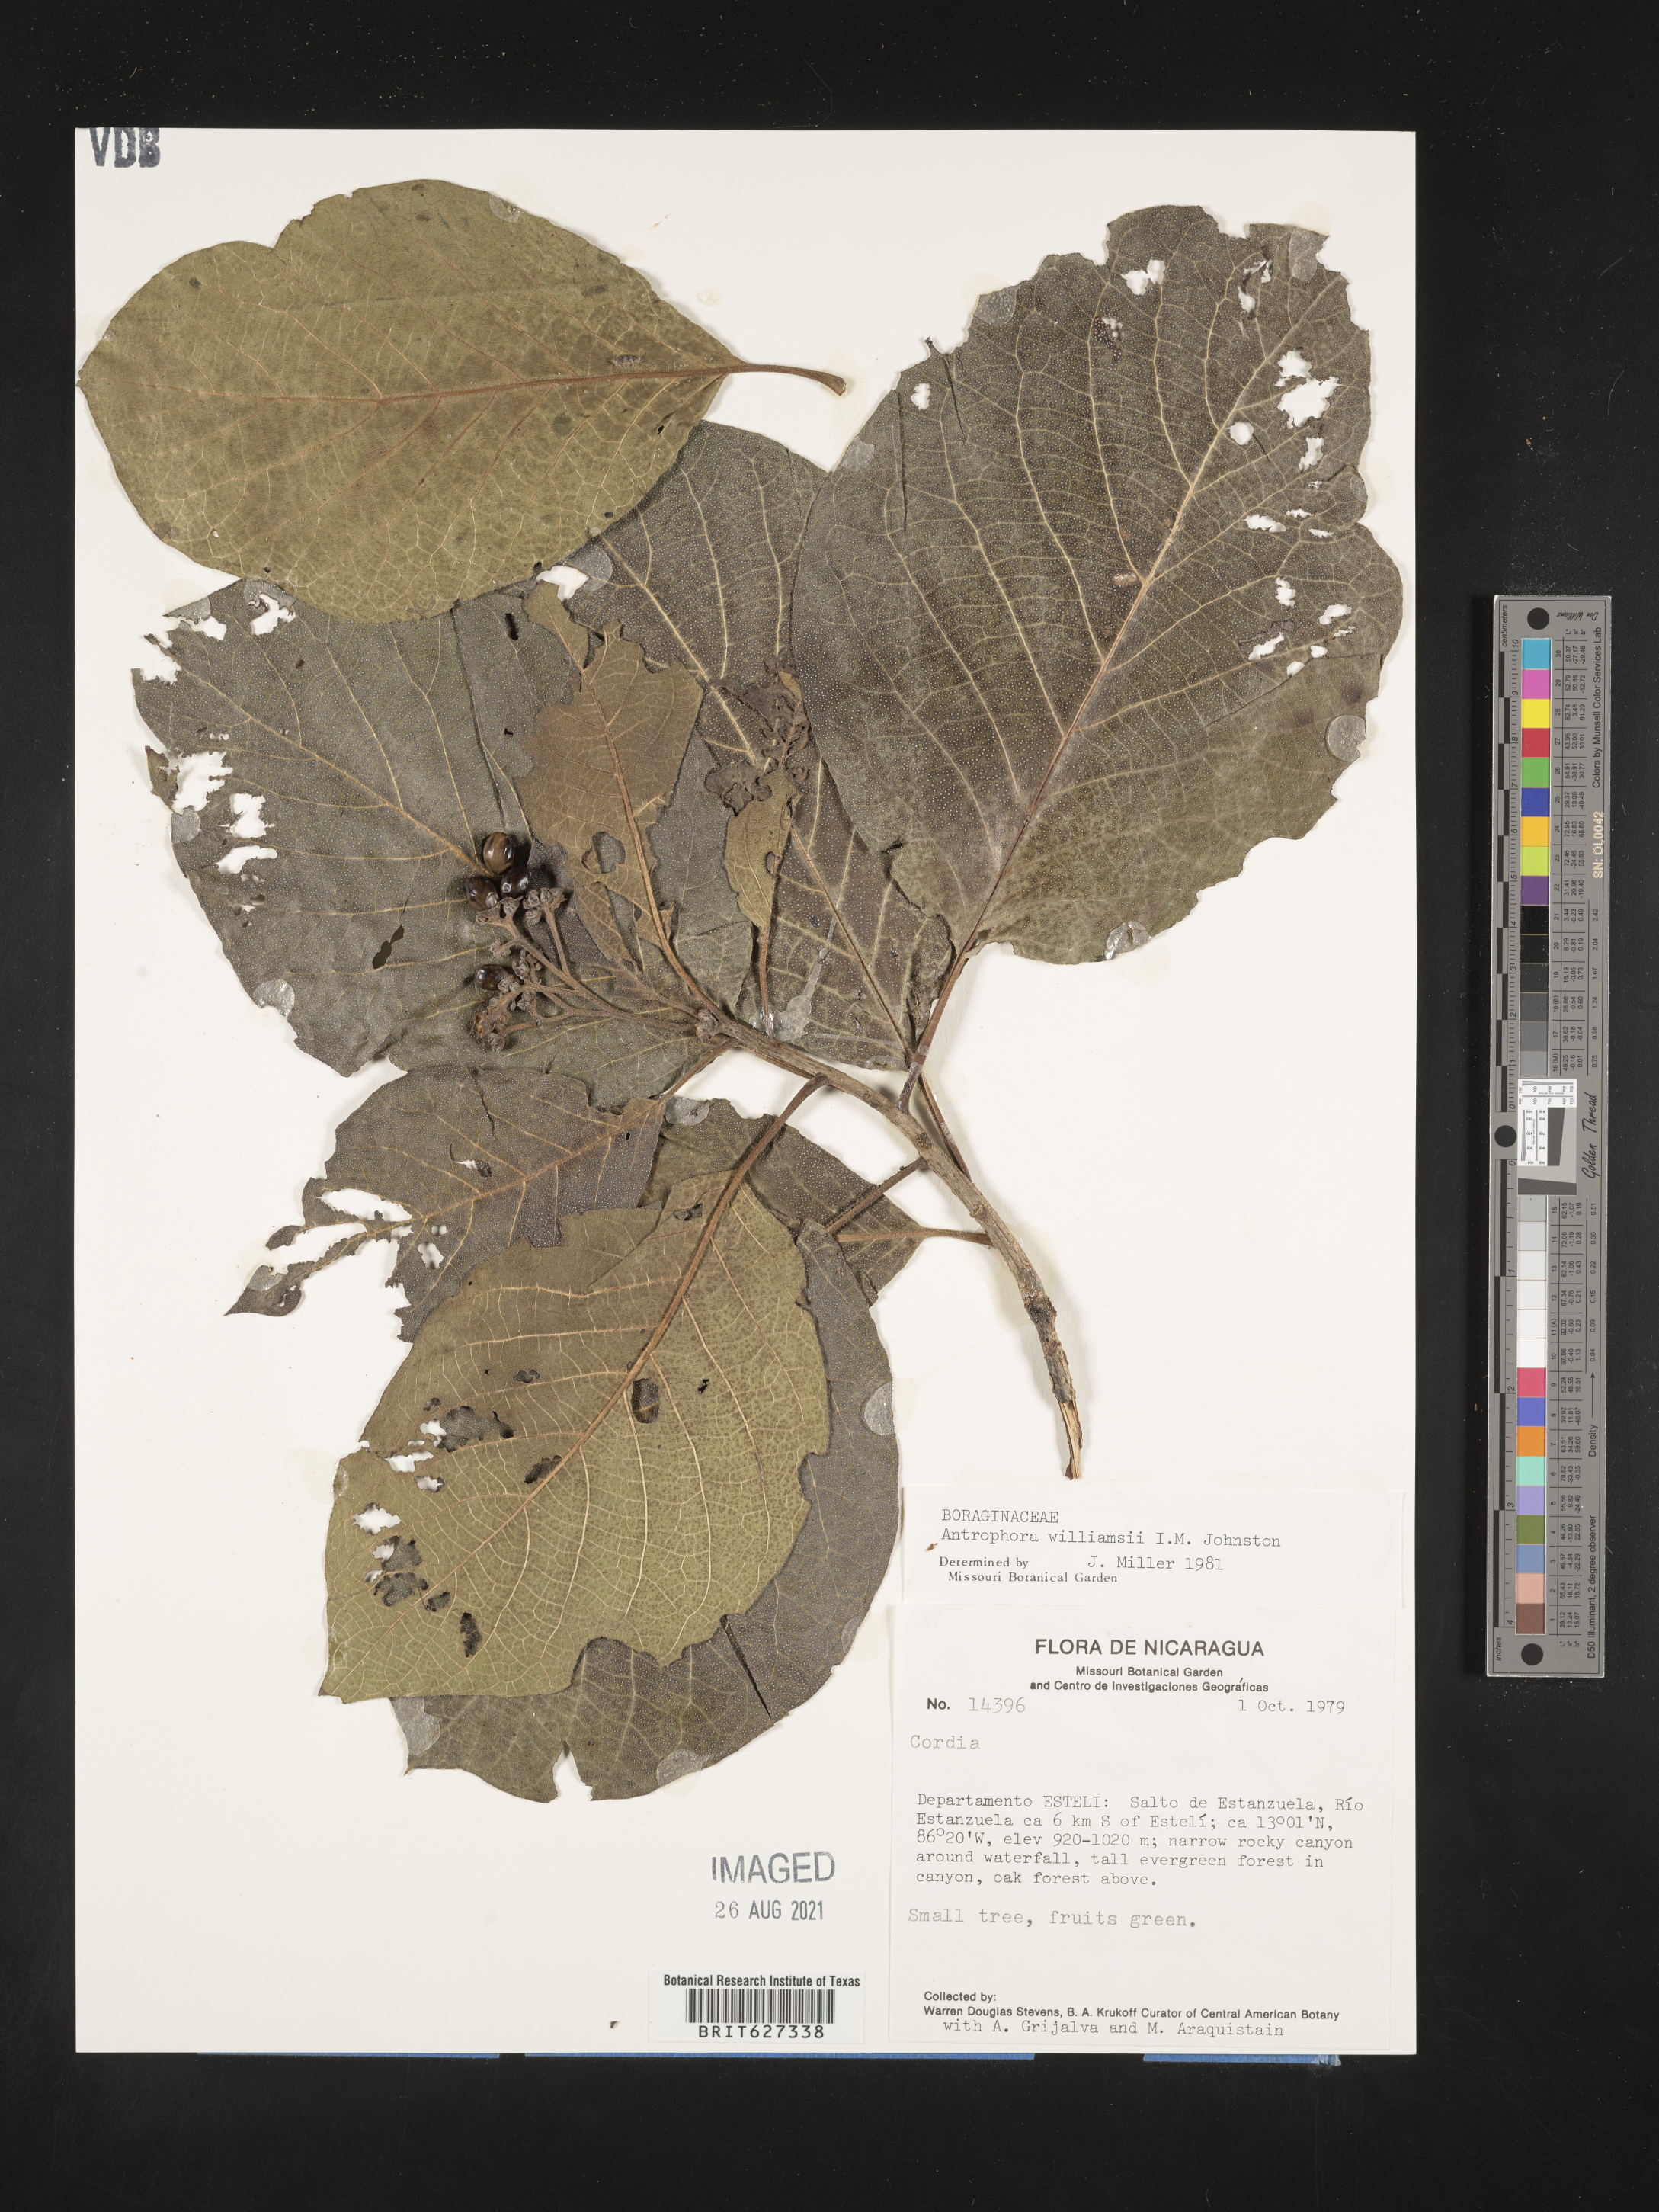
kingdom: Plantae
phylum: Tracheophyta
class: Magnoliopsida
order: Boraginales
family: Ehretiaceae
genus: Lepidocordia
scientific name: Lepidocordia williamsii
